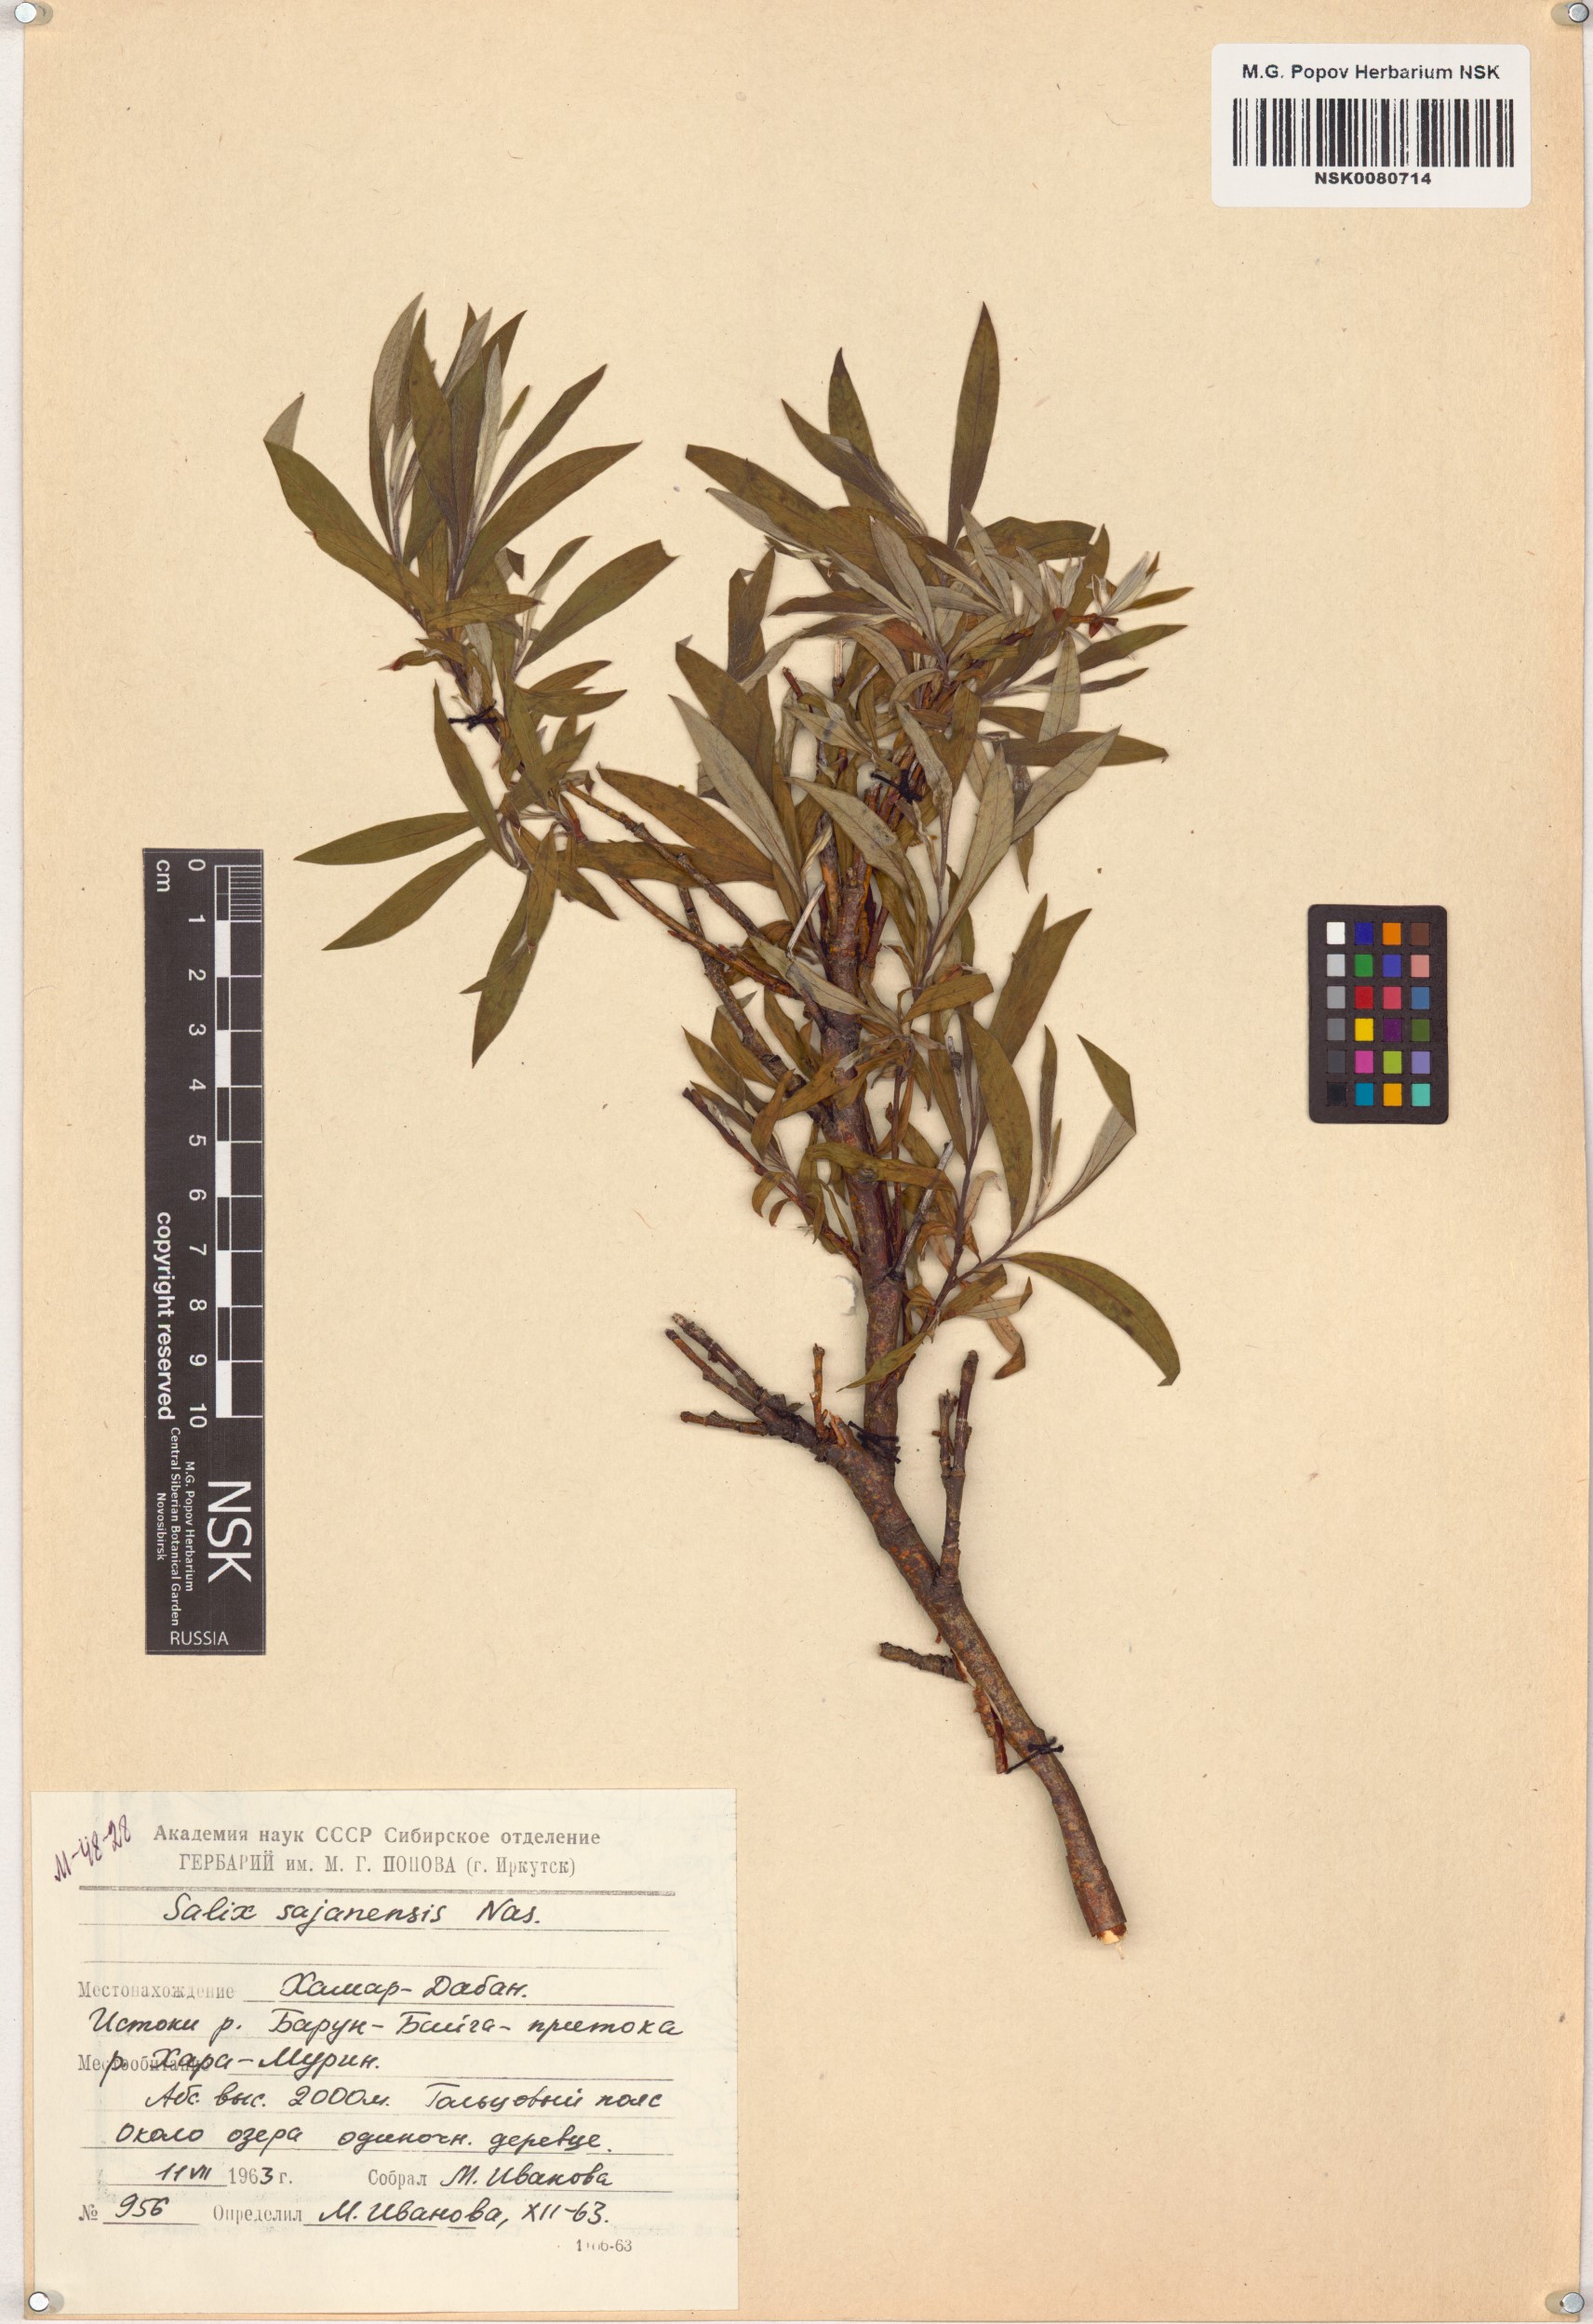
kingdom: Plantae
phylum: Tracheophyta
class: Magnoliopsida
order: Malpighiales
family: Salicaceae
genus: Salix
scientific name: Salix sajanensis
